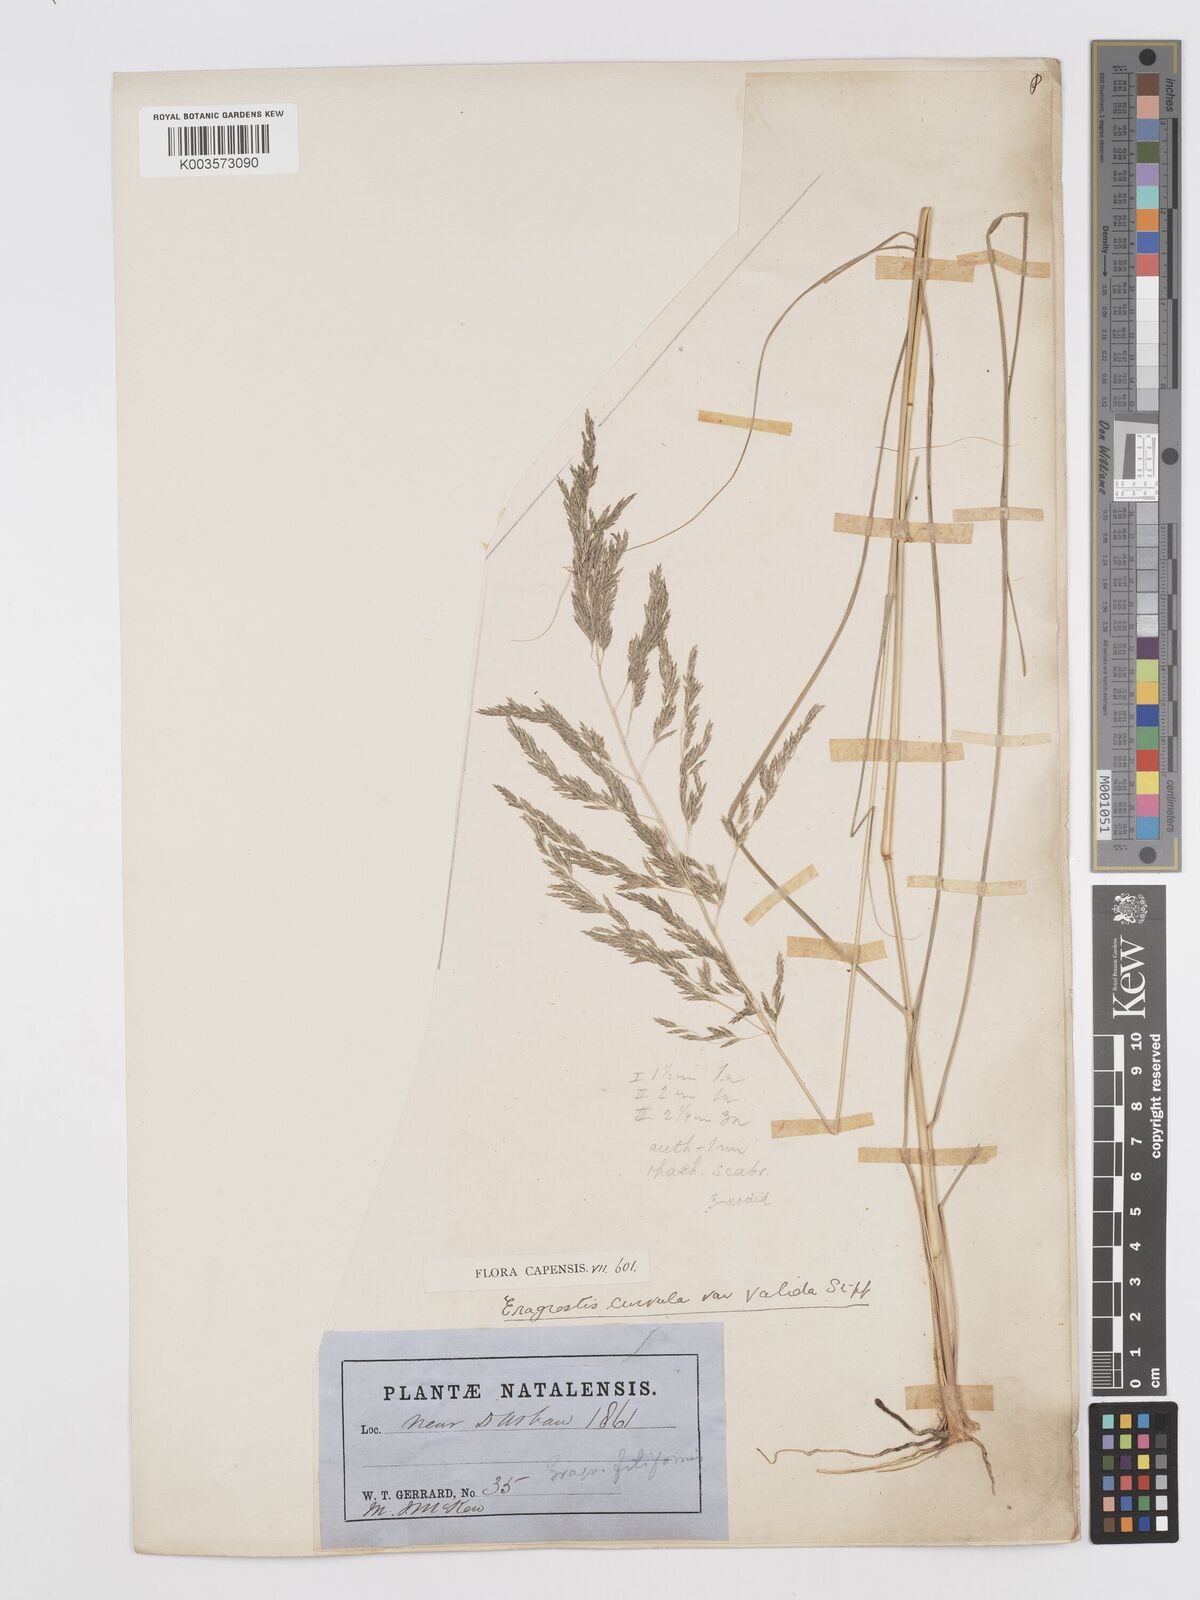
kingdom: Plantae
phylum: Tracheophyta
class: Liliopsida
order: Poales
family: Poaceae
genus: Eragrostis
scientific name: Eragrostis curvula
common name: African love-grass
